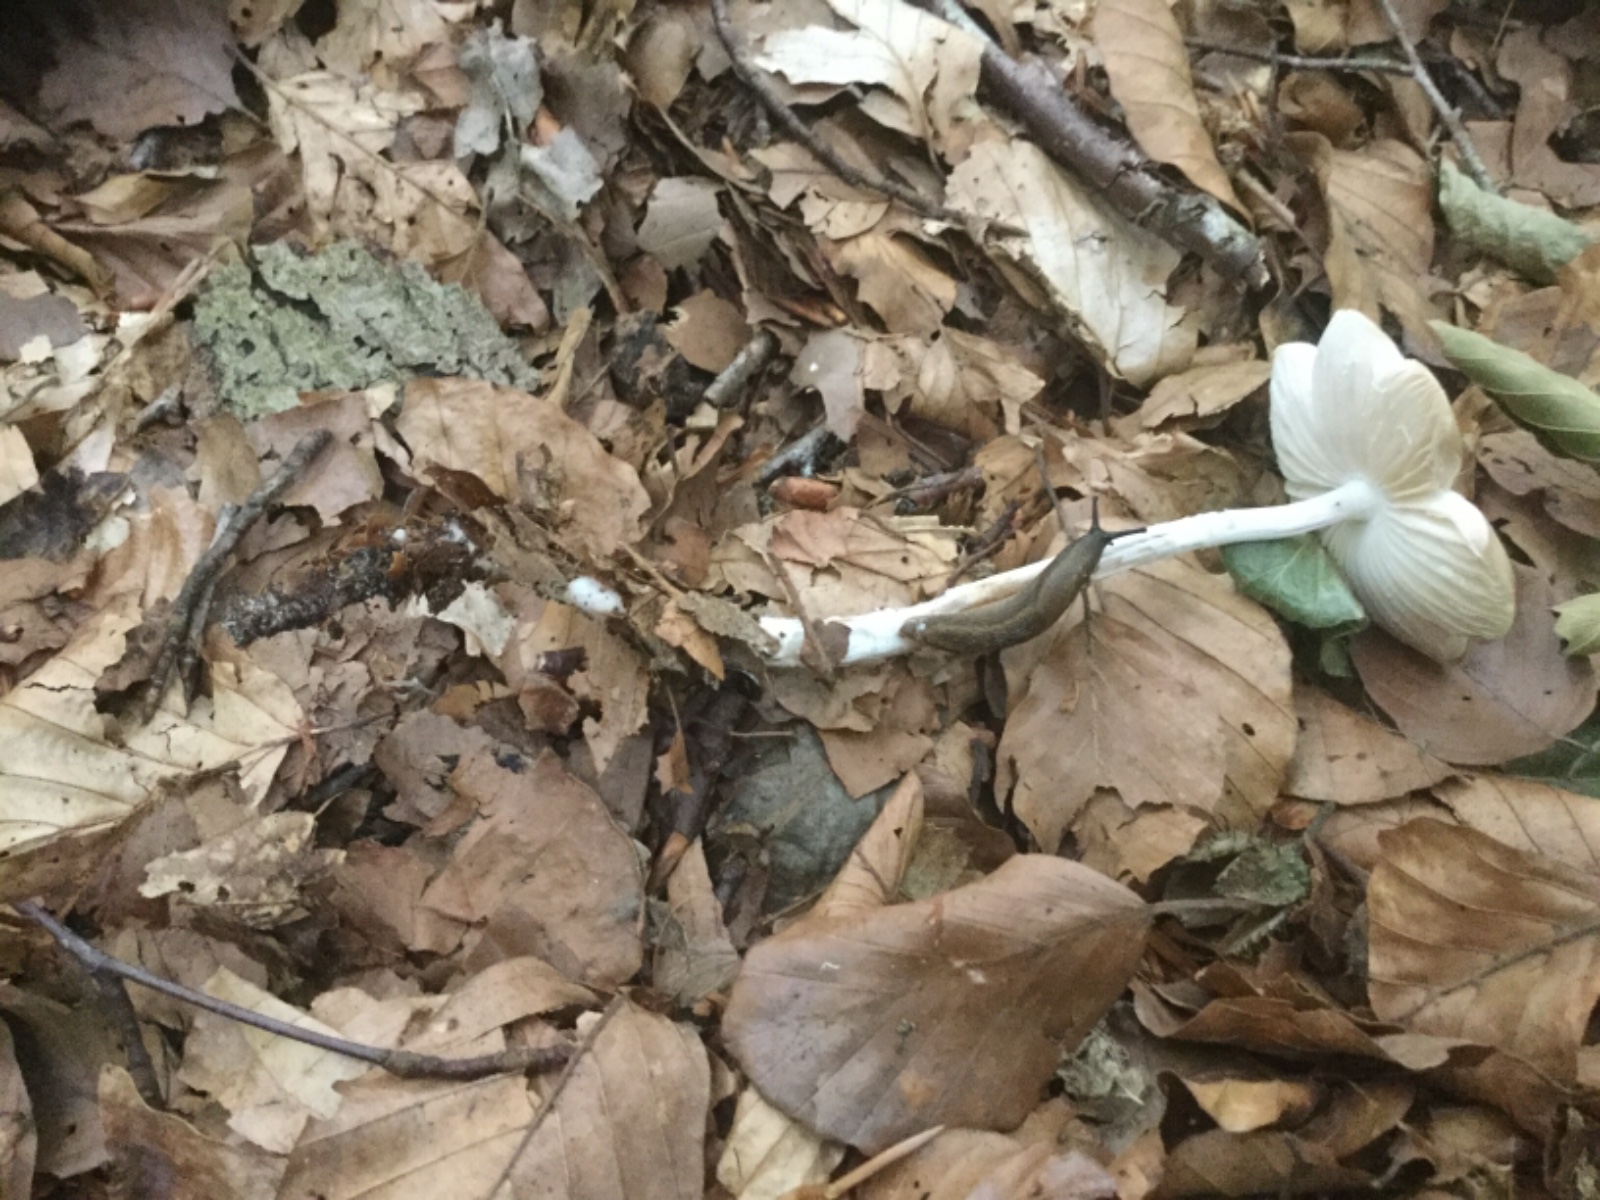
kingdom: Fungi
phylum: Basidiomycota
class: Agaricomycetes
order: Agaricales
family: Physalacriaceae
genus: Hymenopellis
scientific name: Hymenopellis radicata
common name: almindelig pælerodshat
